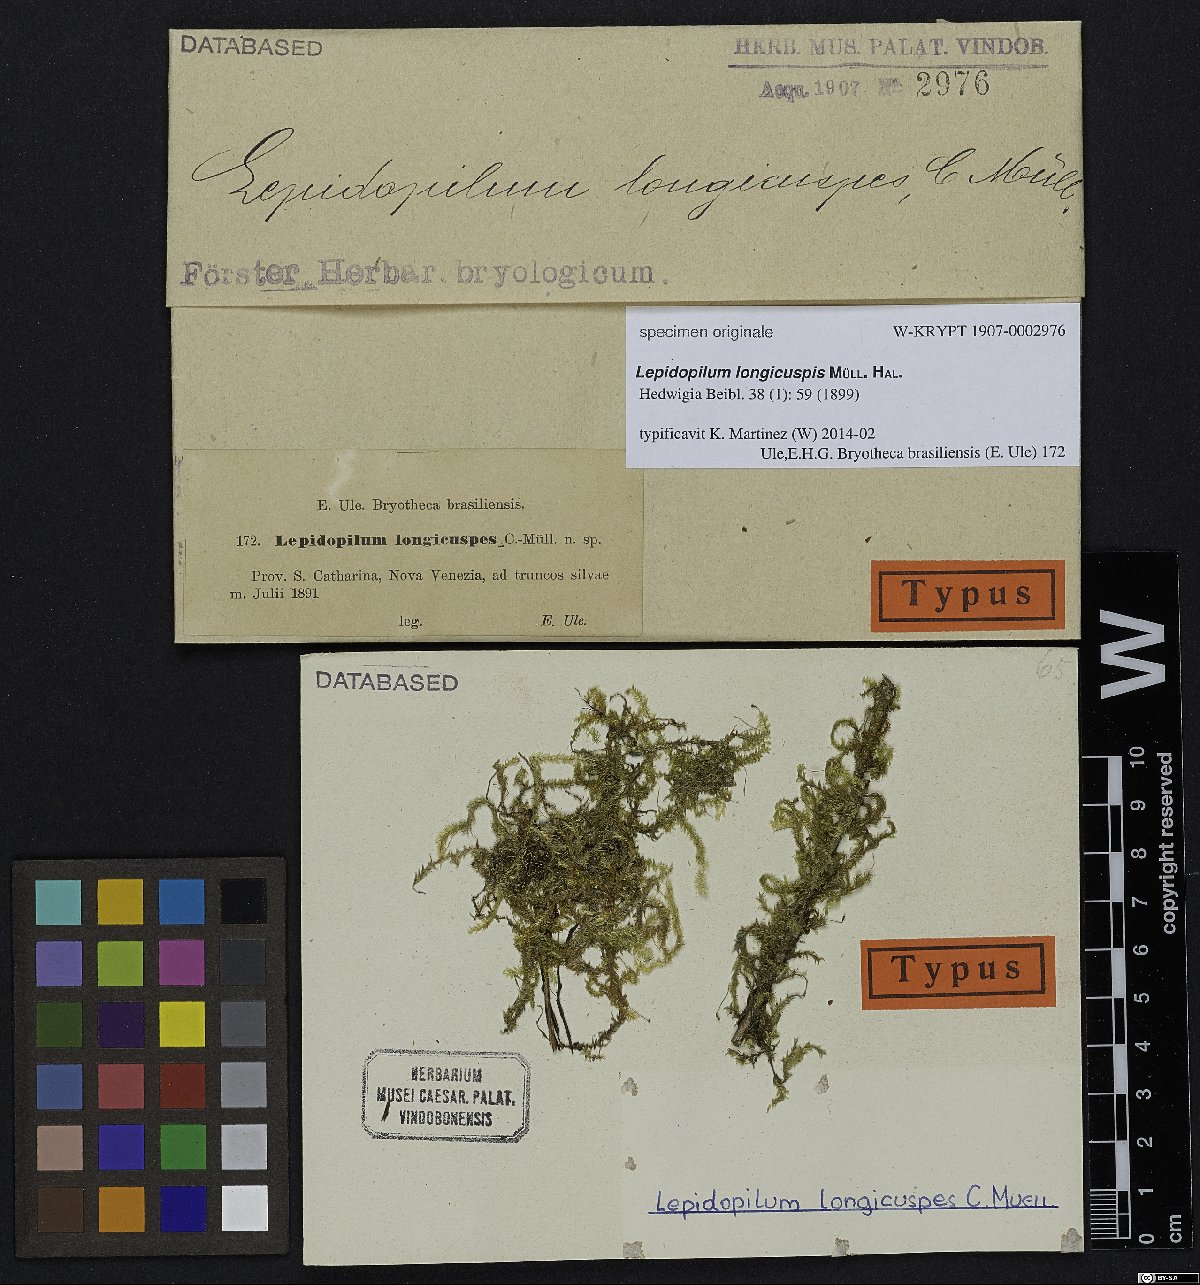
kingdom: Plantae
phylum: Bryophyta
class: Bryopsida
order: Hookeriales
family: Daltoniaceae
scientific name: Daltoniaceae
